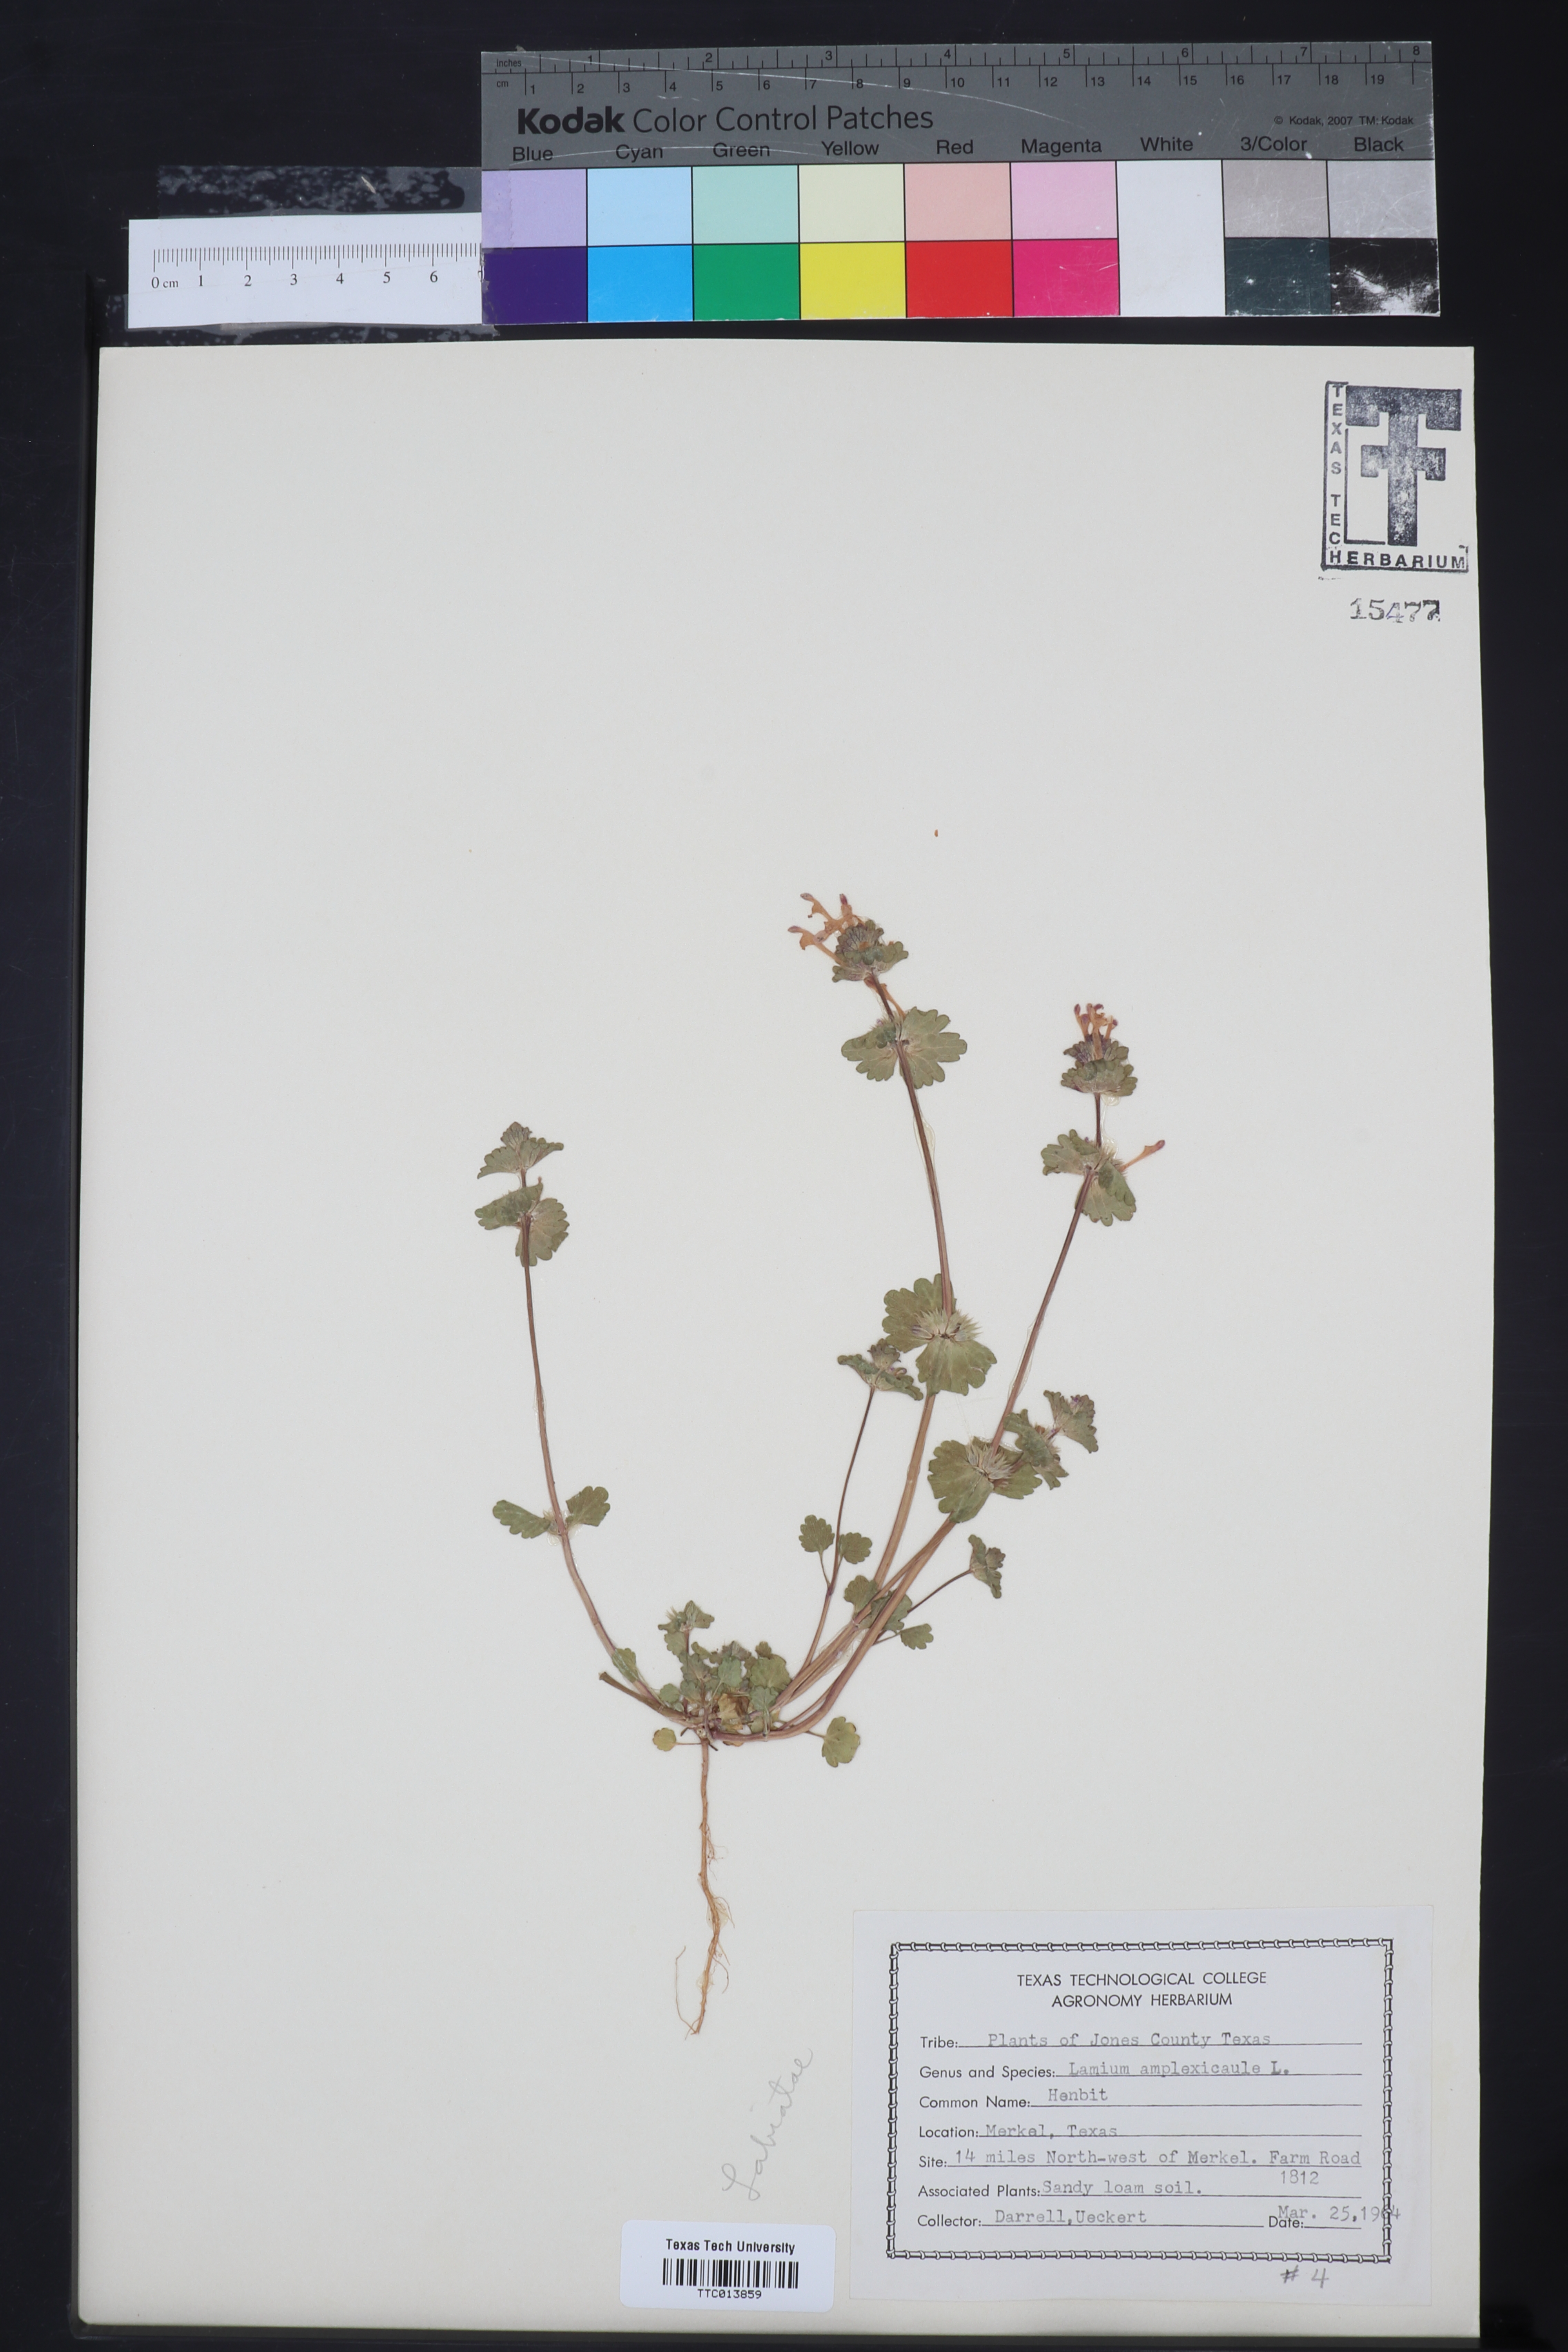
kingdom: Plantae
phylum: Tracheophyta
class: Magnoliopsida
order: Lamiales
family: Lamiaceae
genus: Lamium
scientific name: Lamium amplexicaule
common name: Henbit dead-nettle
